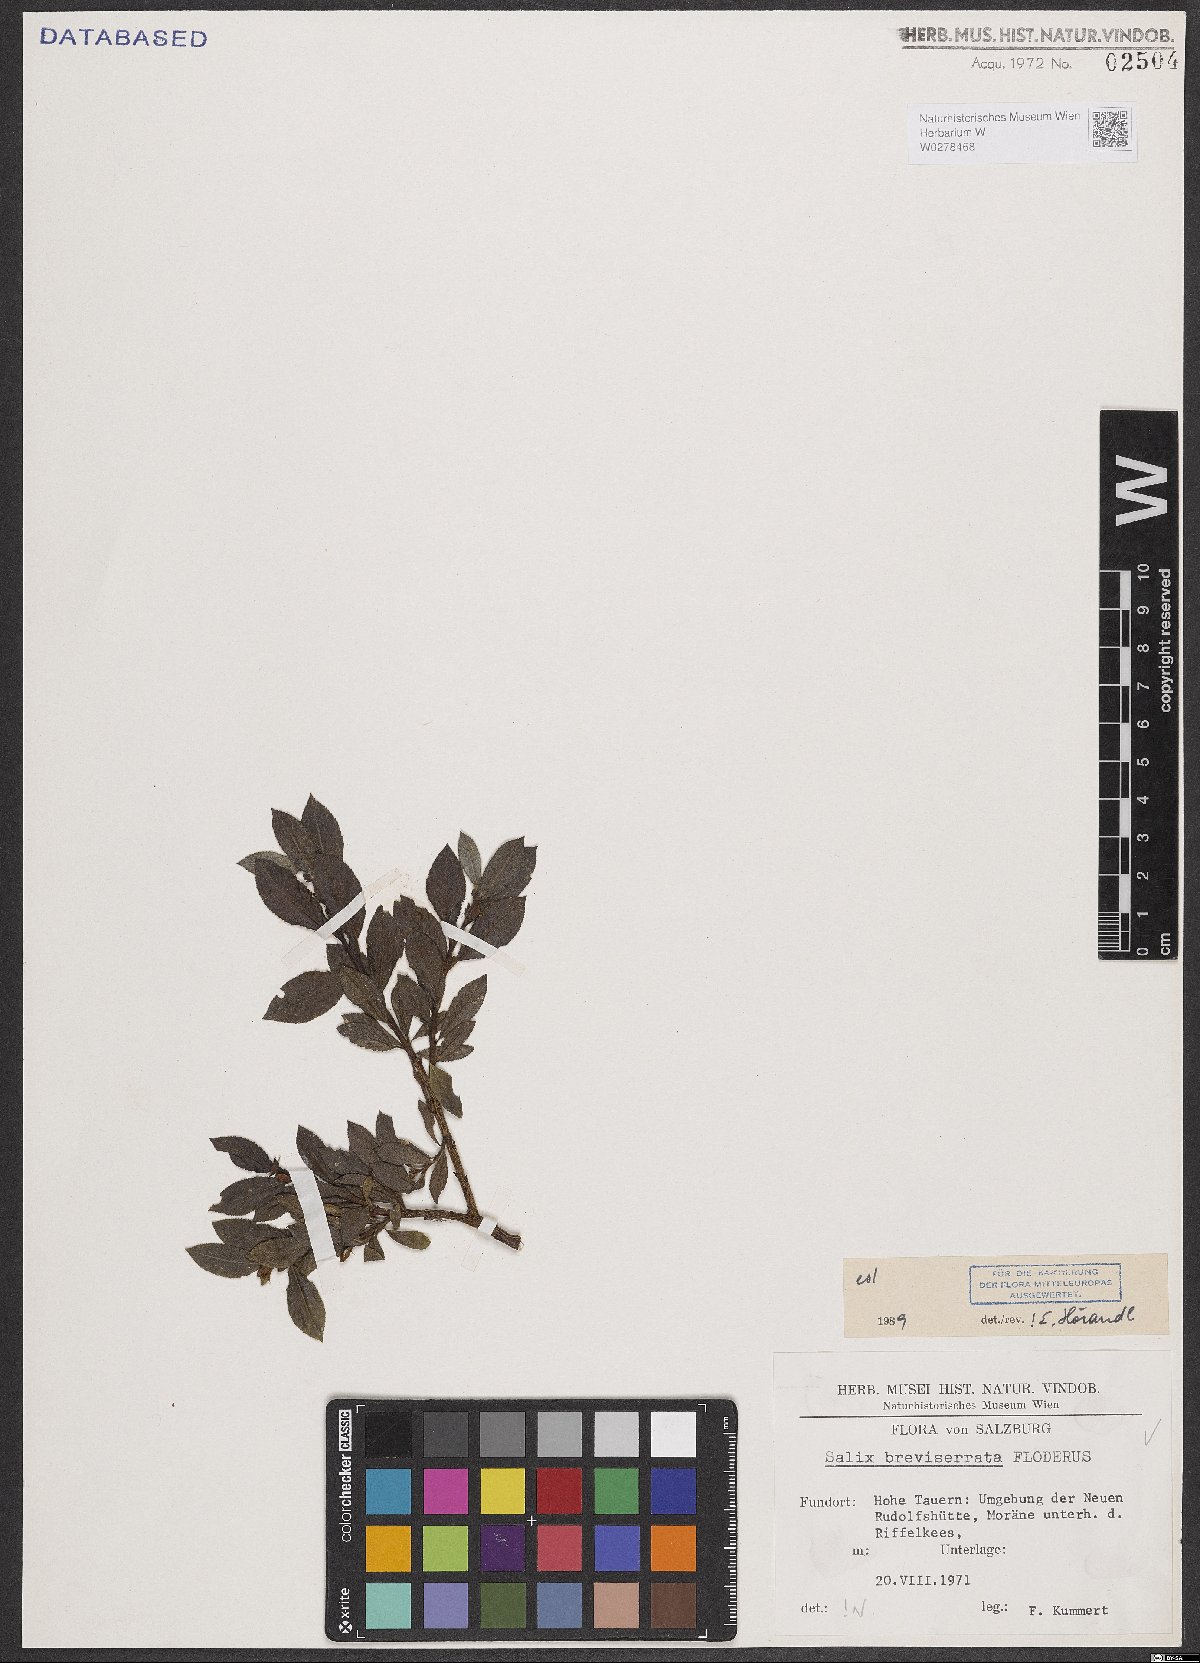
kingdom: Plantae
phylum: Tracheophyta
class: Magnoliopsida
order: Malpighiales
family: Salicaceae
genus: Salix
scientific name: Salix breviserrata
